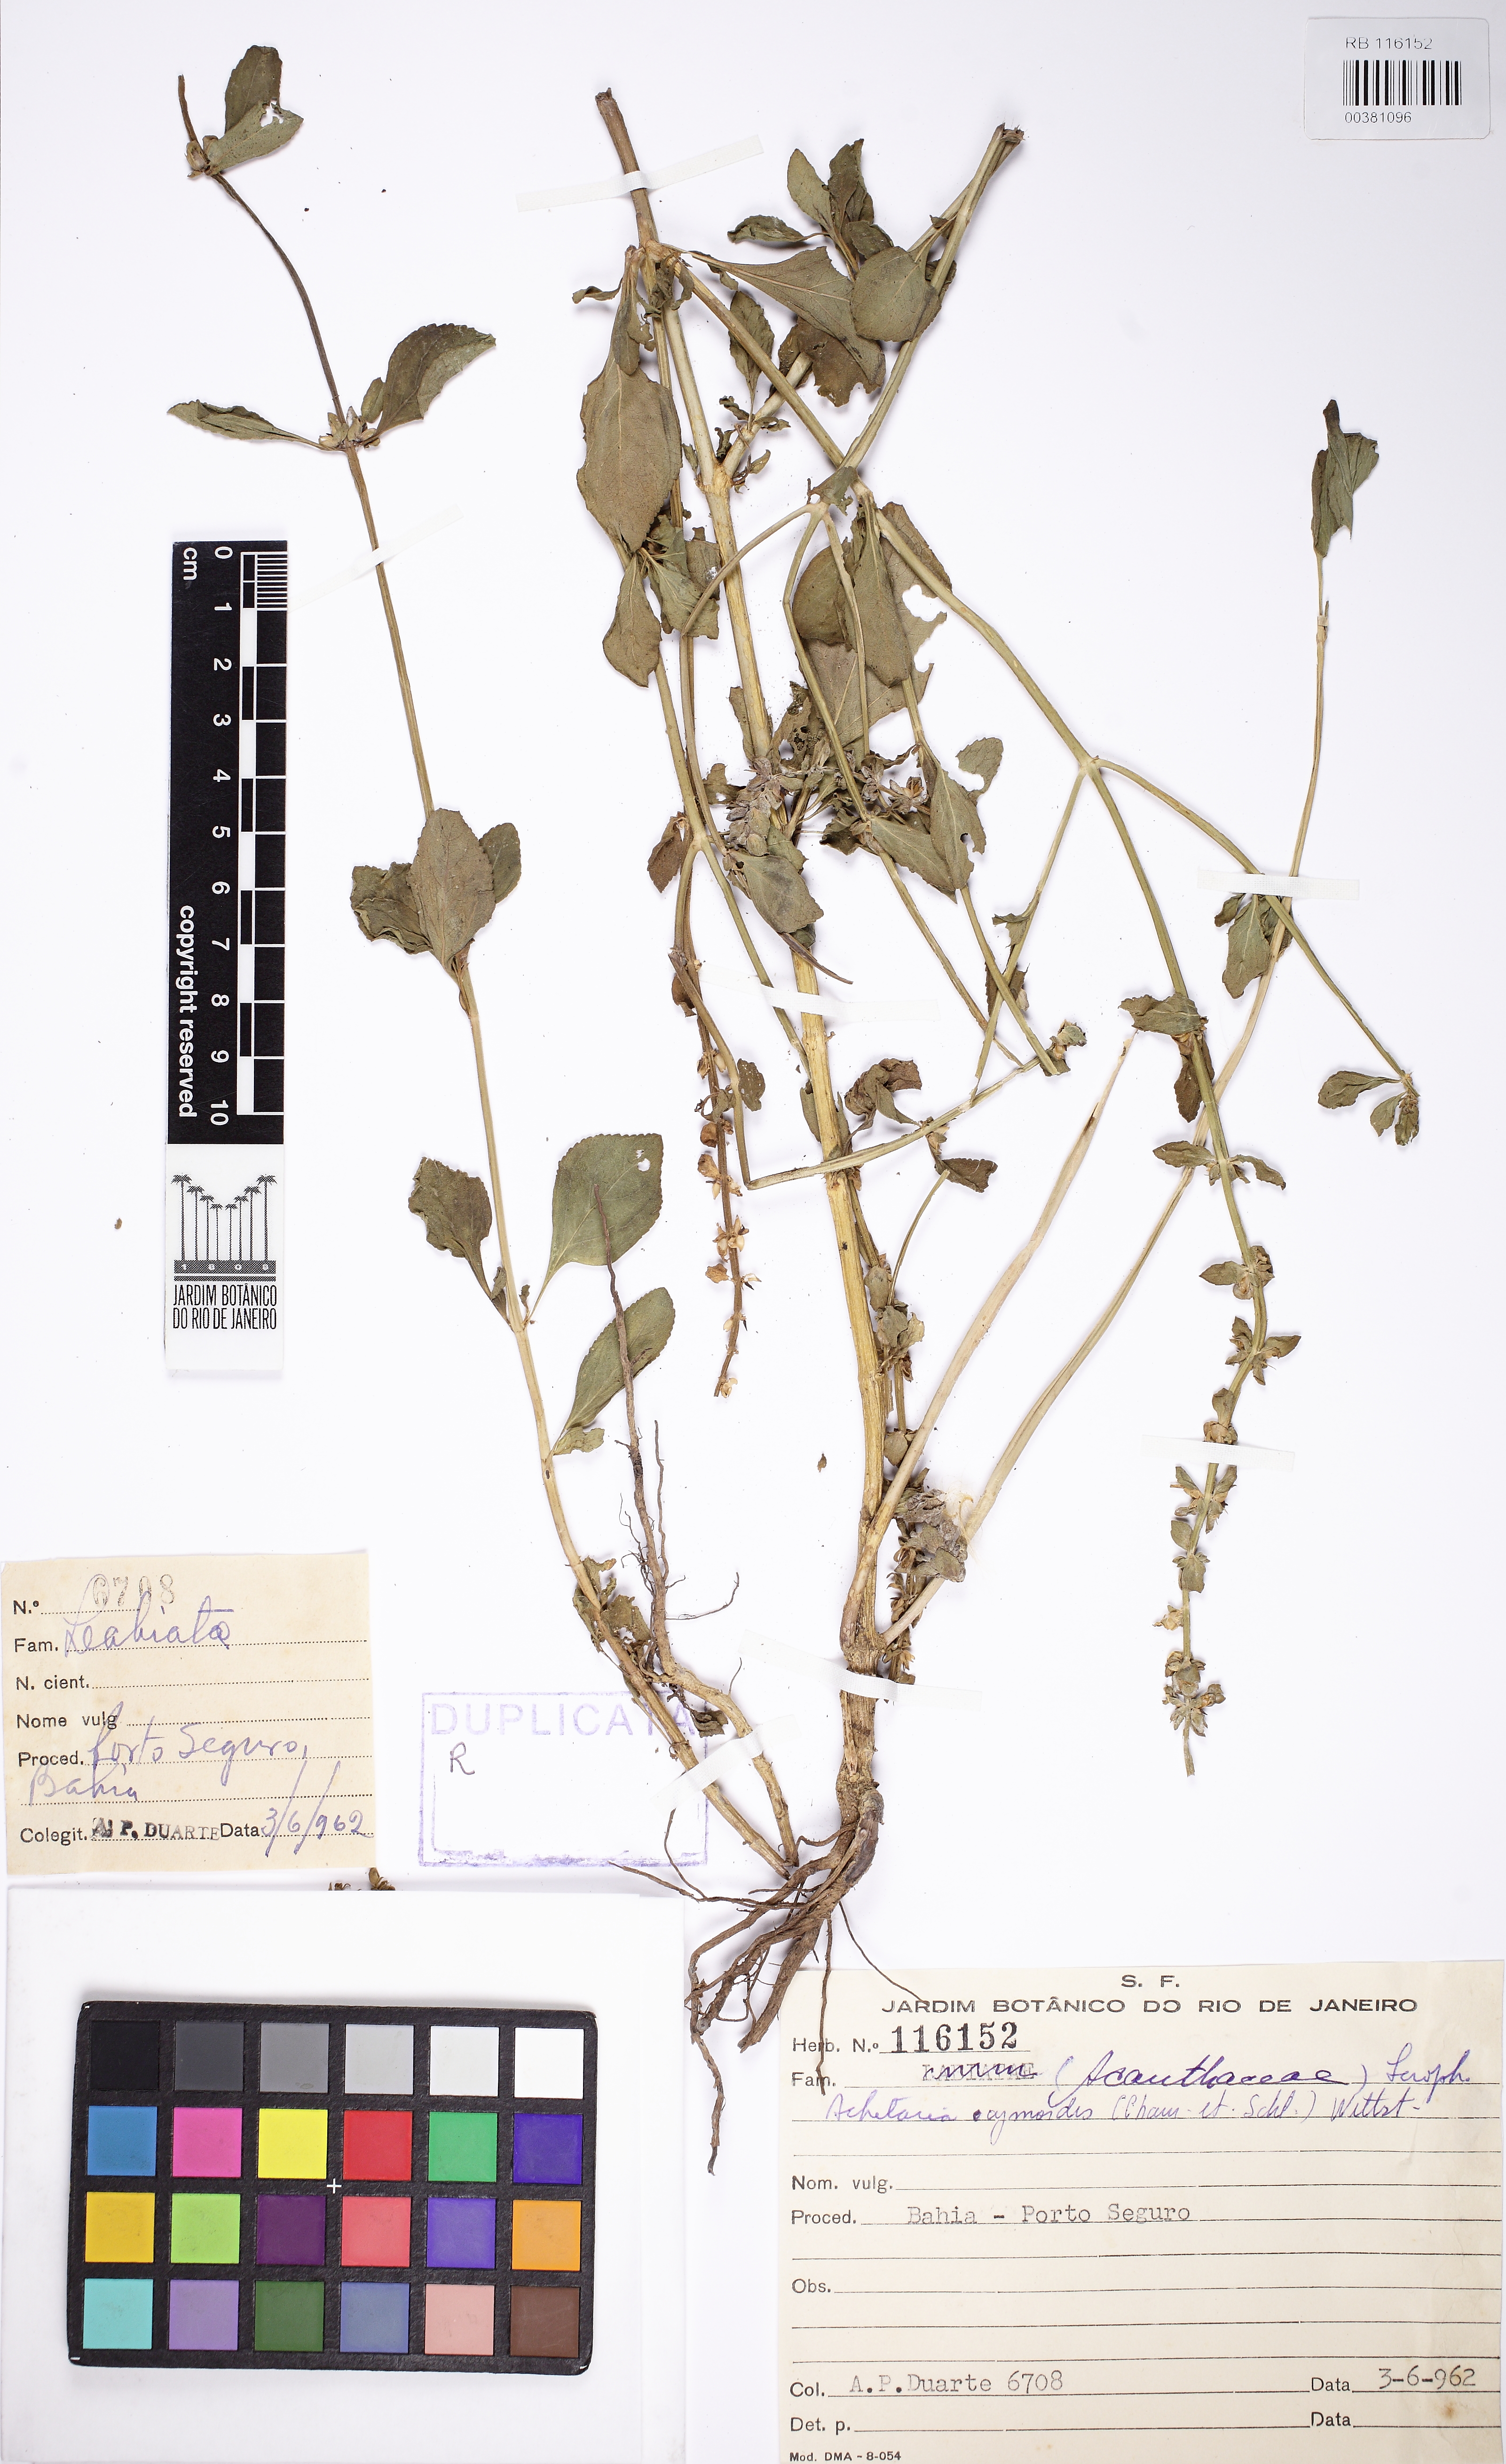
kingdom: Plantae
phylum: Tracheophyta
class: Magnoliopsida
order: Lamiales
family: Plantaginaceae
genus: Matourea
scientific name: Matourea ocymoides
